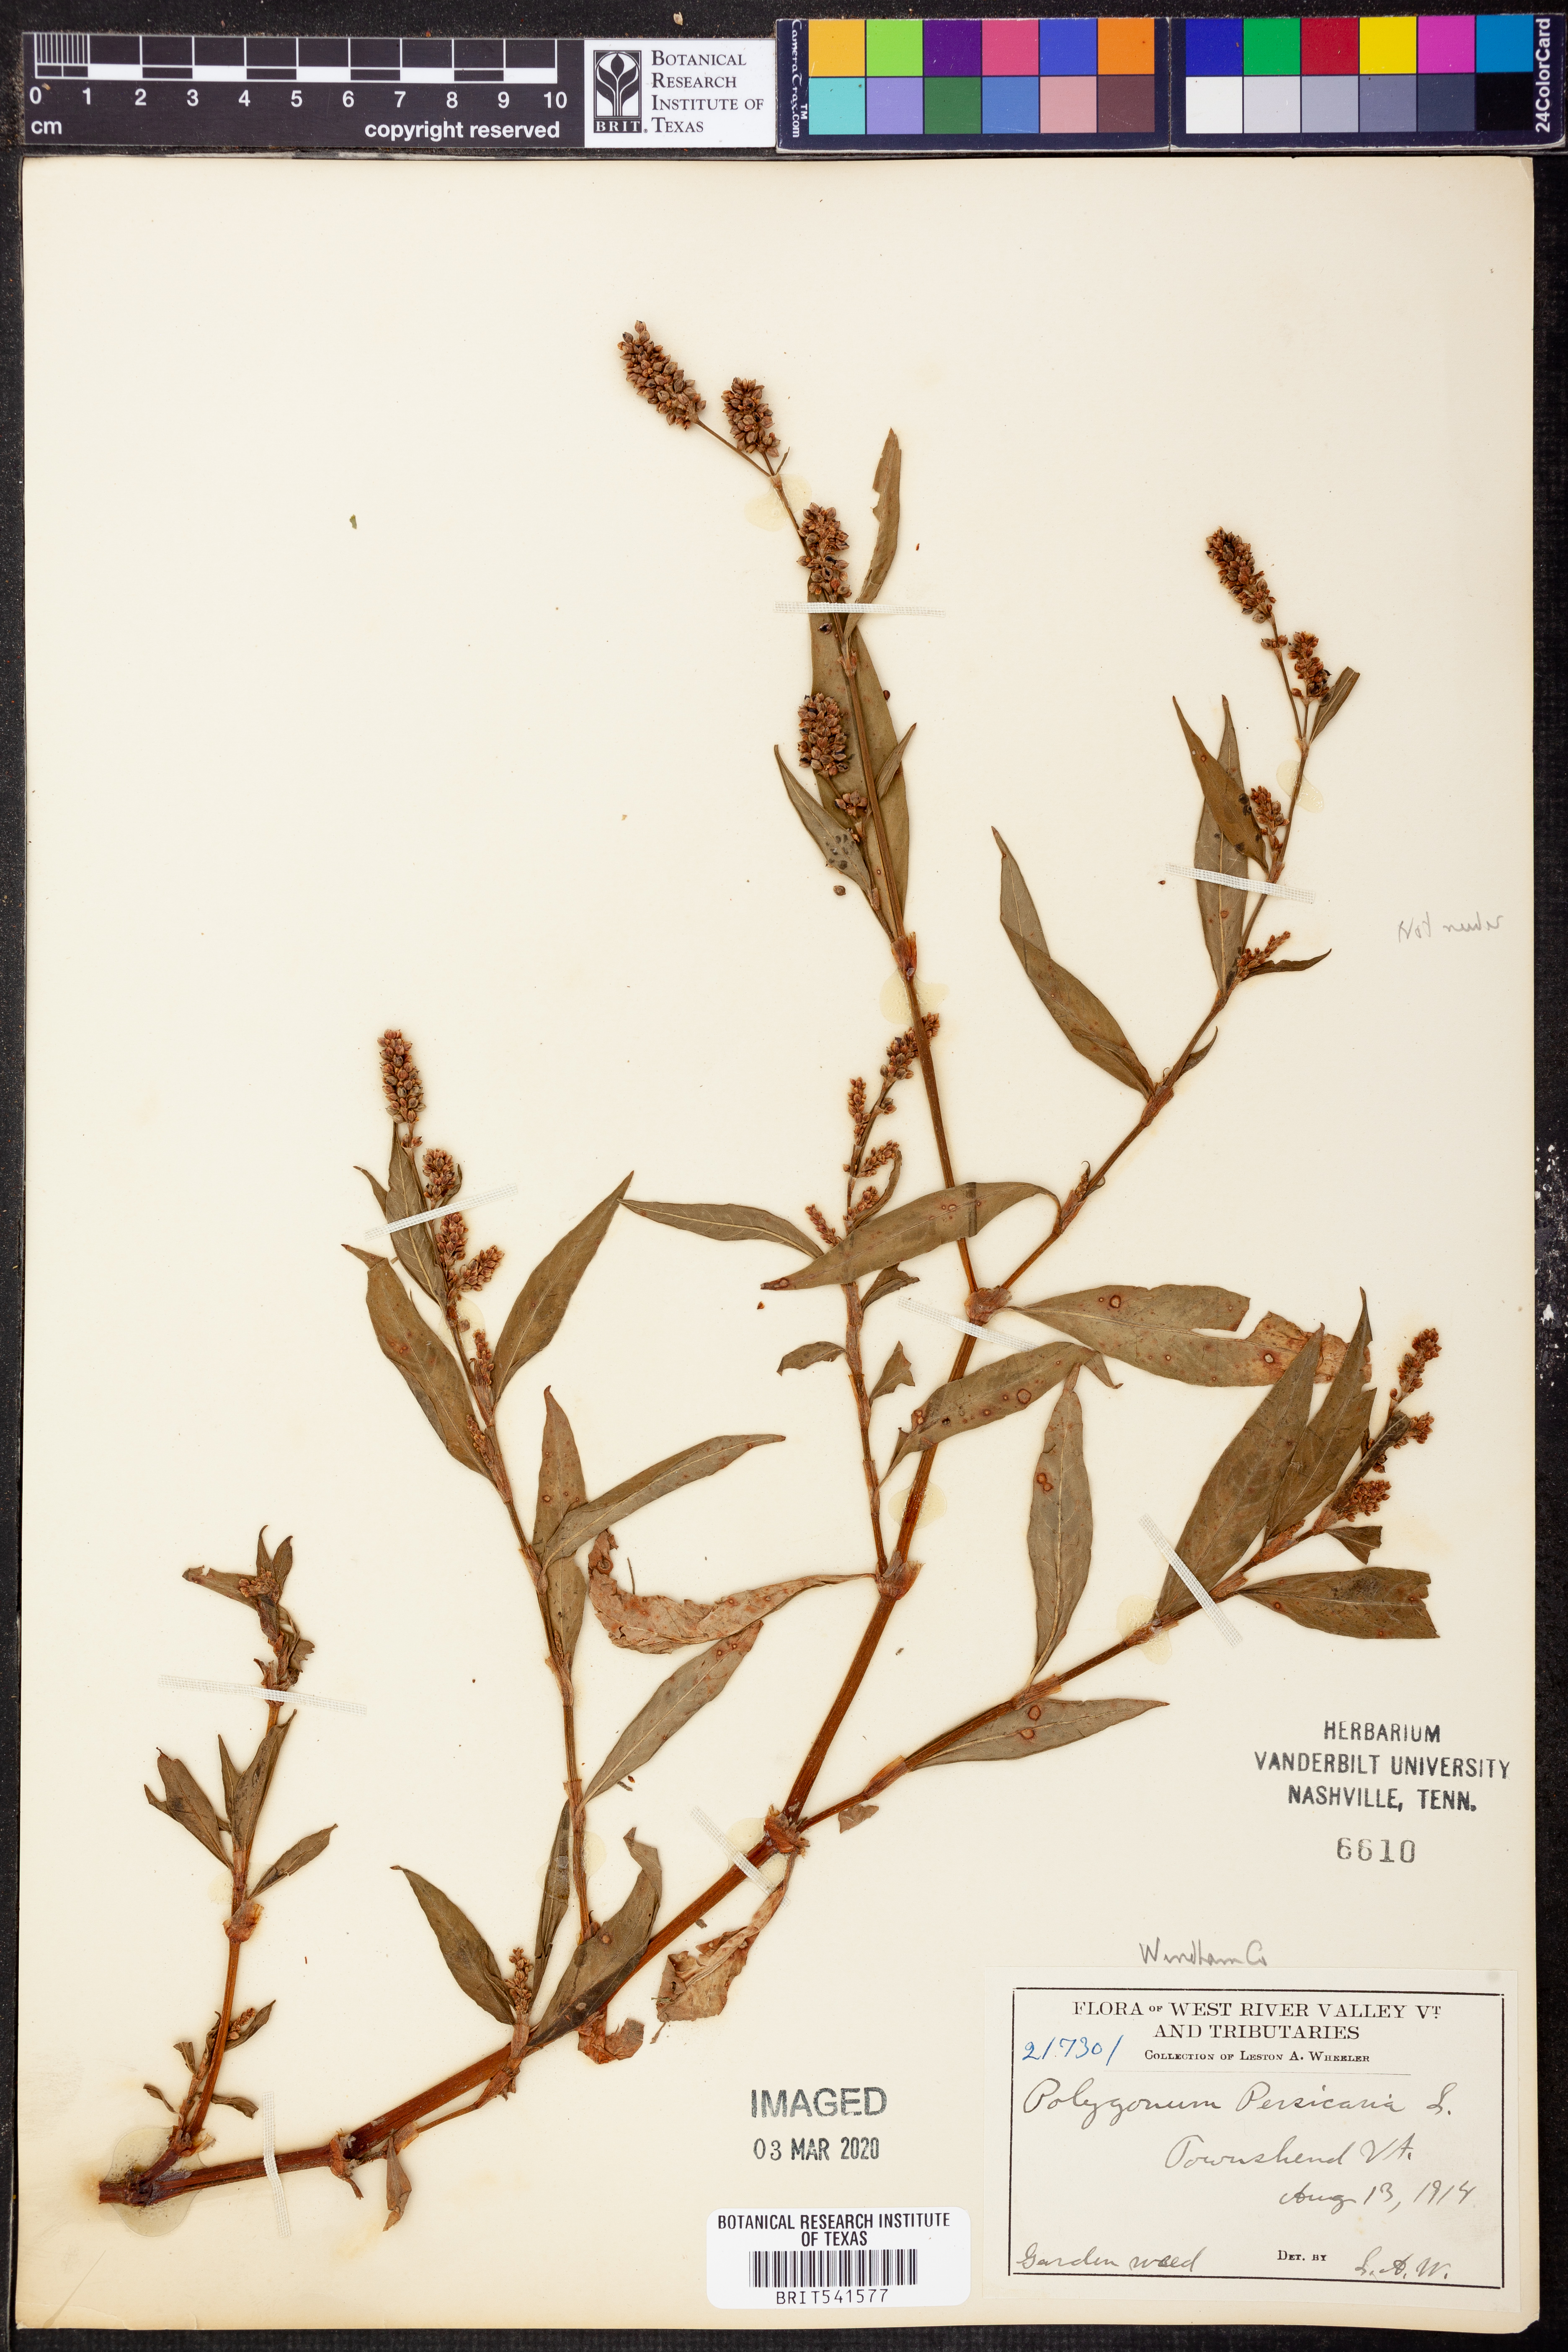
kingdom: Plantae
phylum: Tracheophyta
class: Magnoliopsida
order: Caryophyllales
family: Polygonaceae
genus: Persicaria
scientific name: Persicaria maculosa
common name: Redshank
